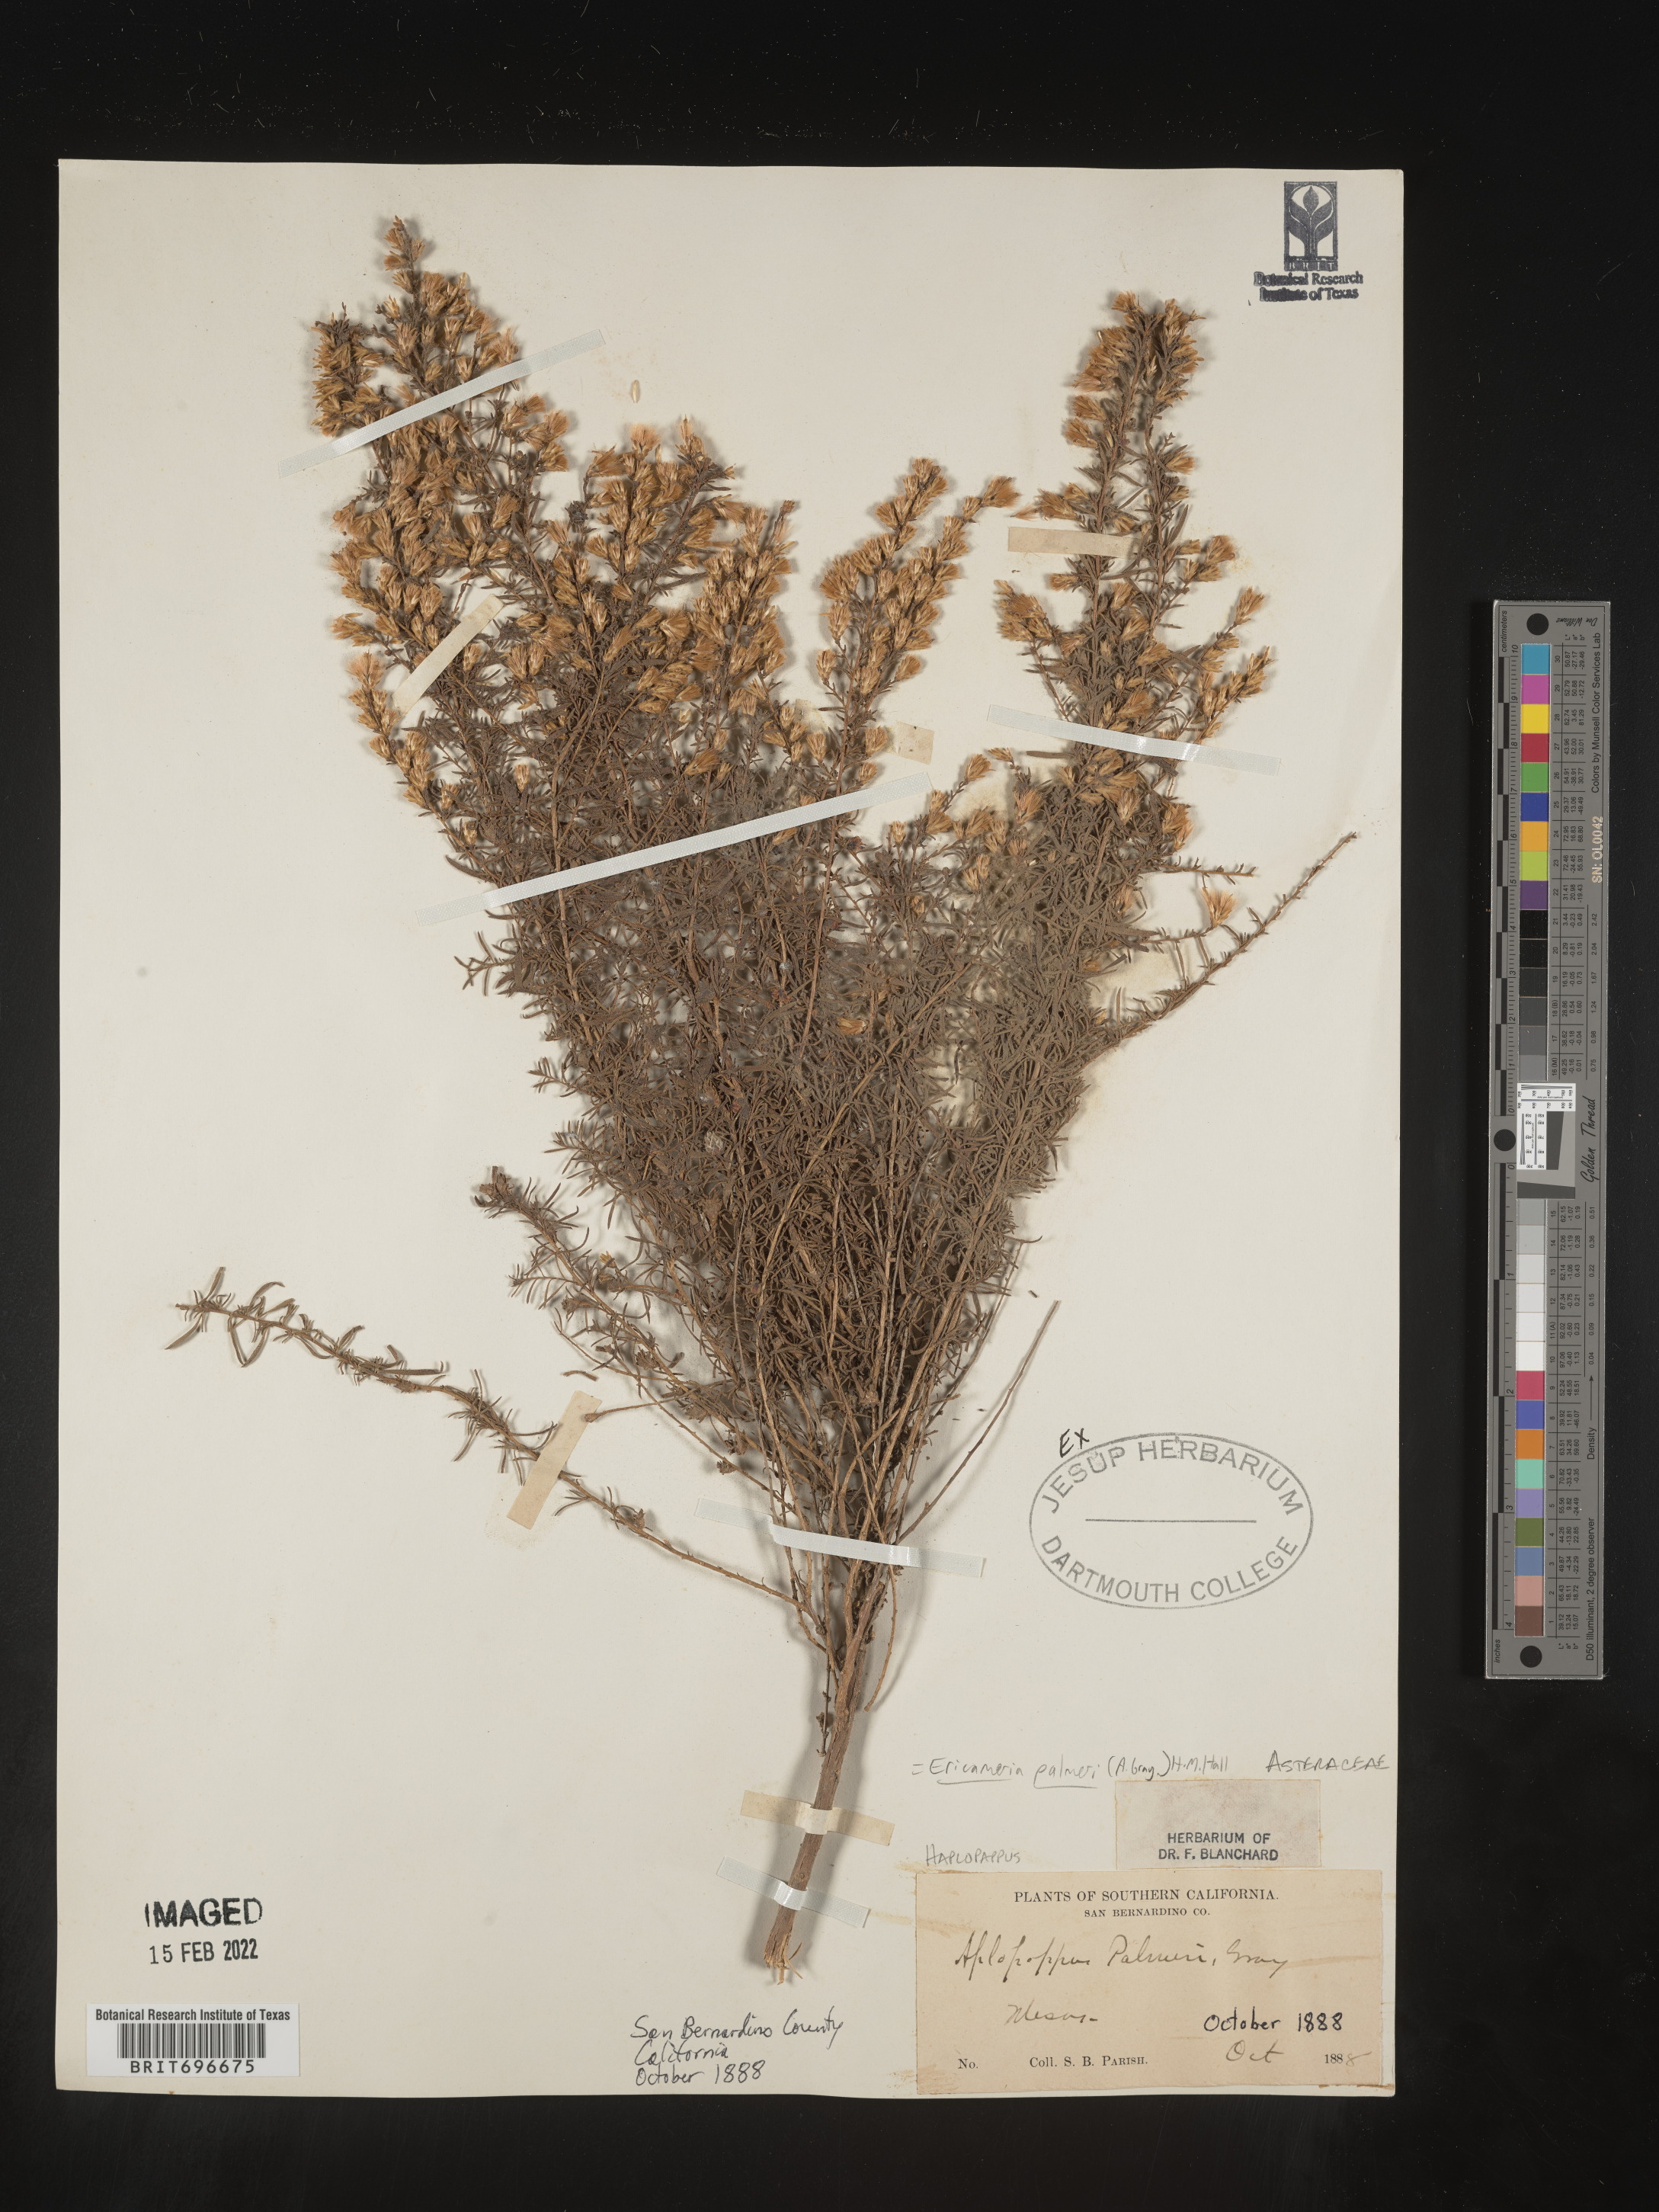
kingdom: Plantae
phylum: Tracheophyta
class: Magnoliopsida
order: Asterales
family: Asteraceae
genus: Ericameria
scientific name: Ericameria palmeri
